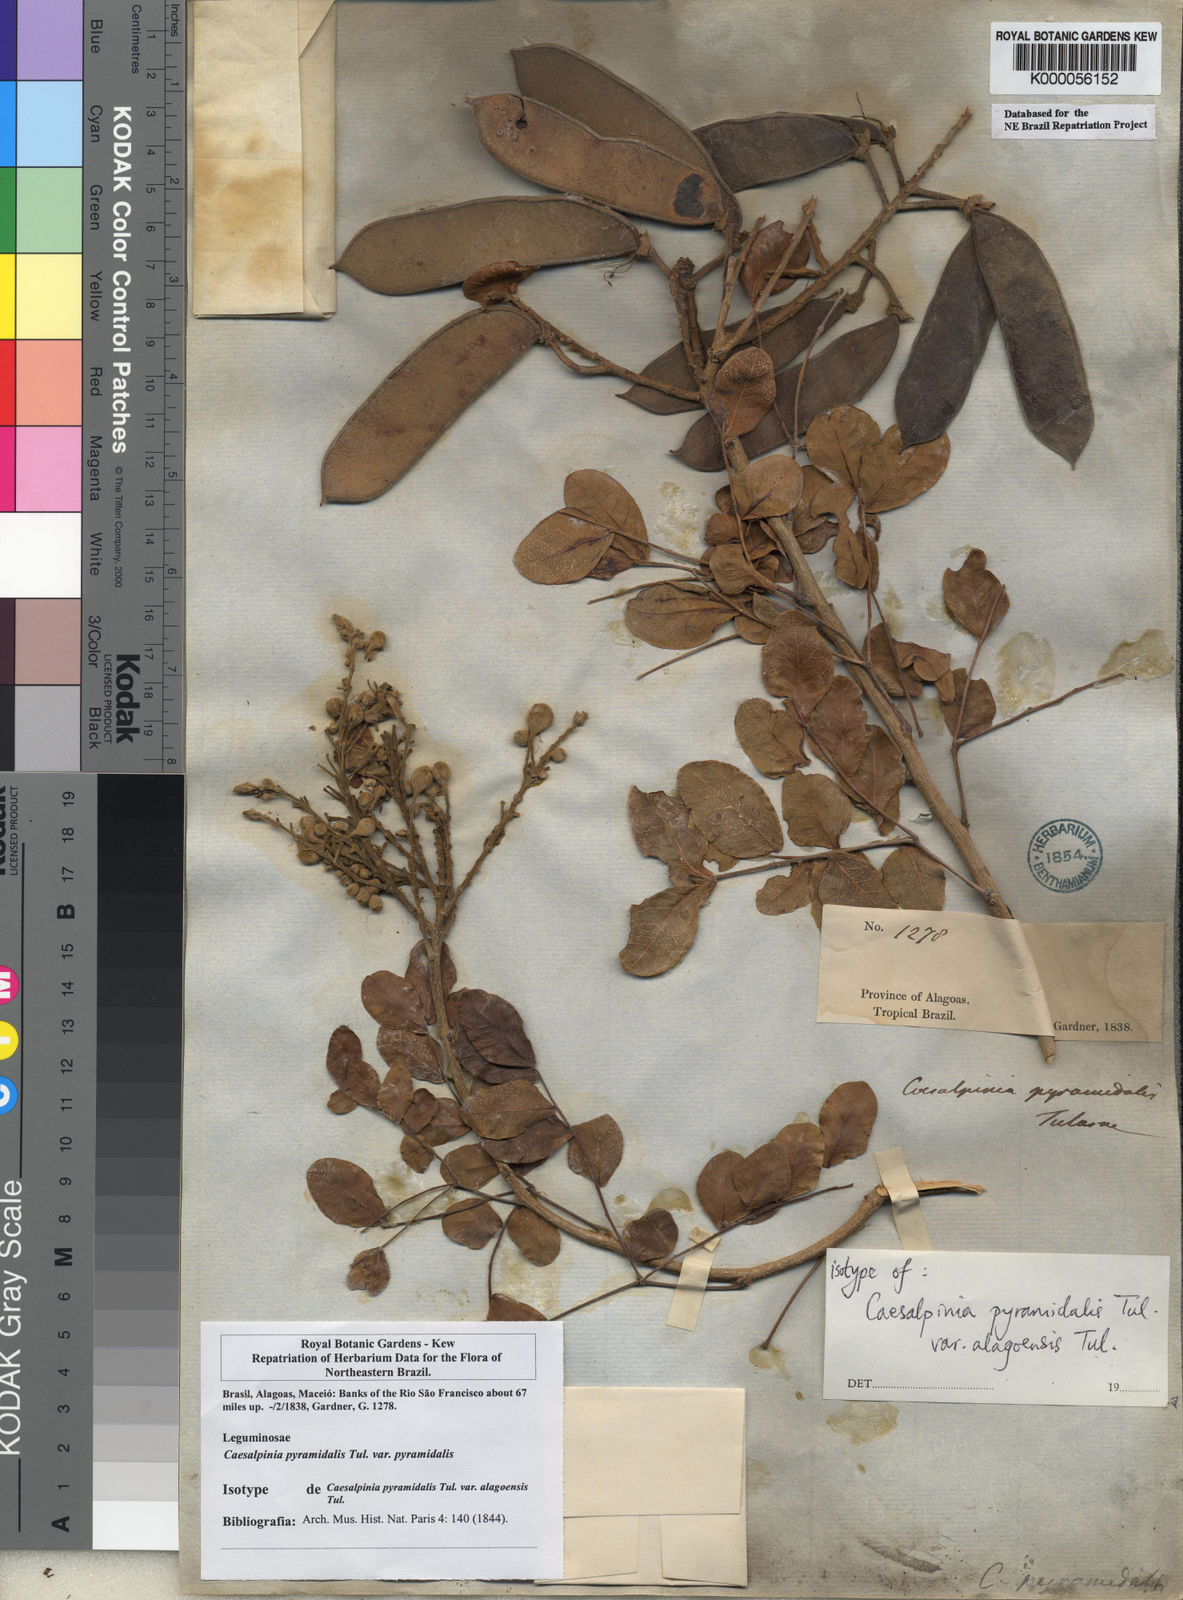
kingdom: Plantae
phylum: Tracheophyta
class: Magnoliopsida
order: Fabales
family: Fabaceae
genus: Cenostigma
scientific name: Cenostigma pyramidale
